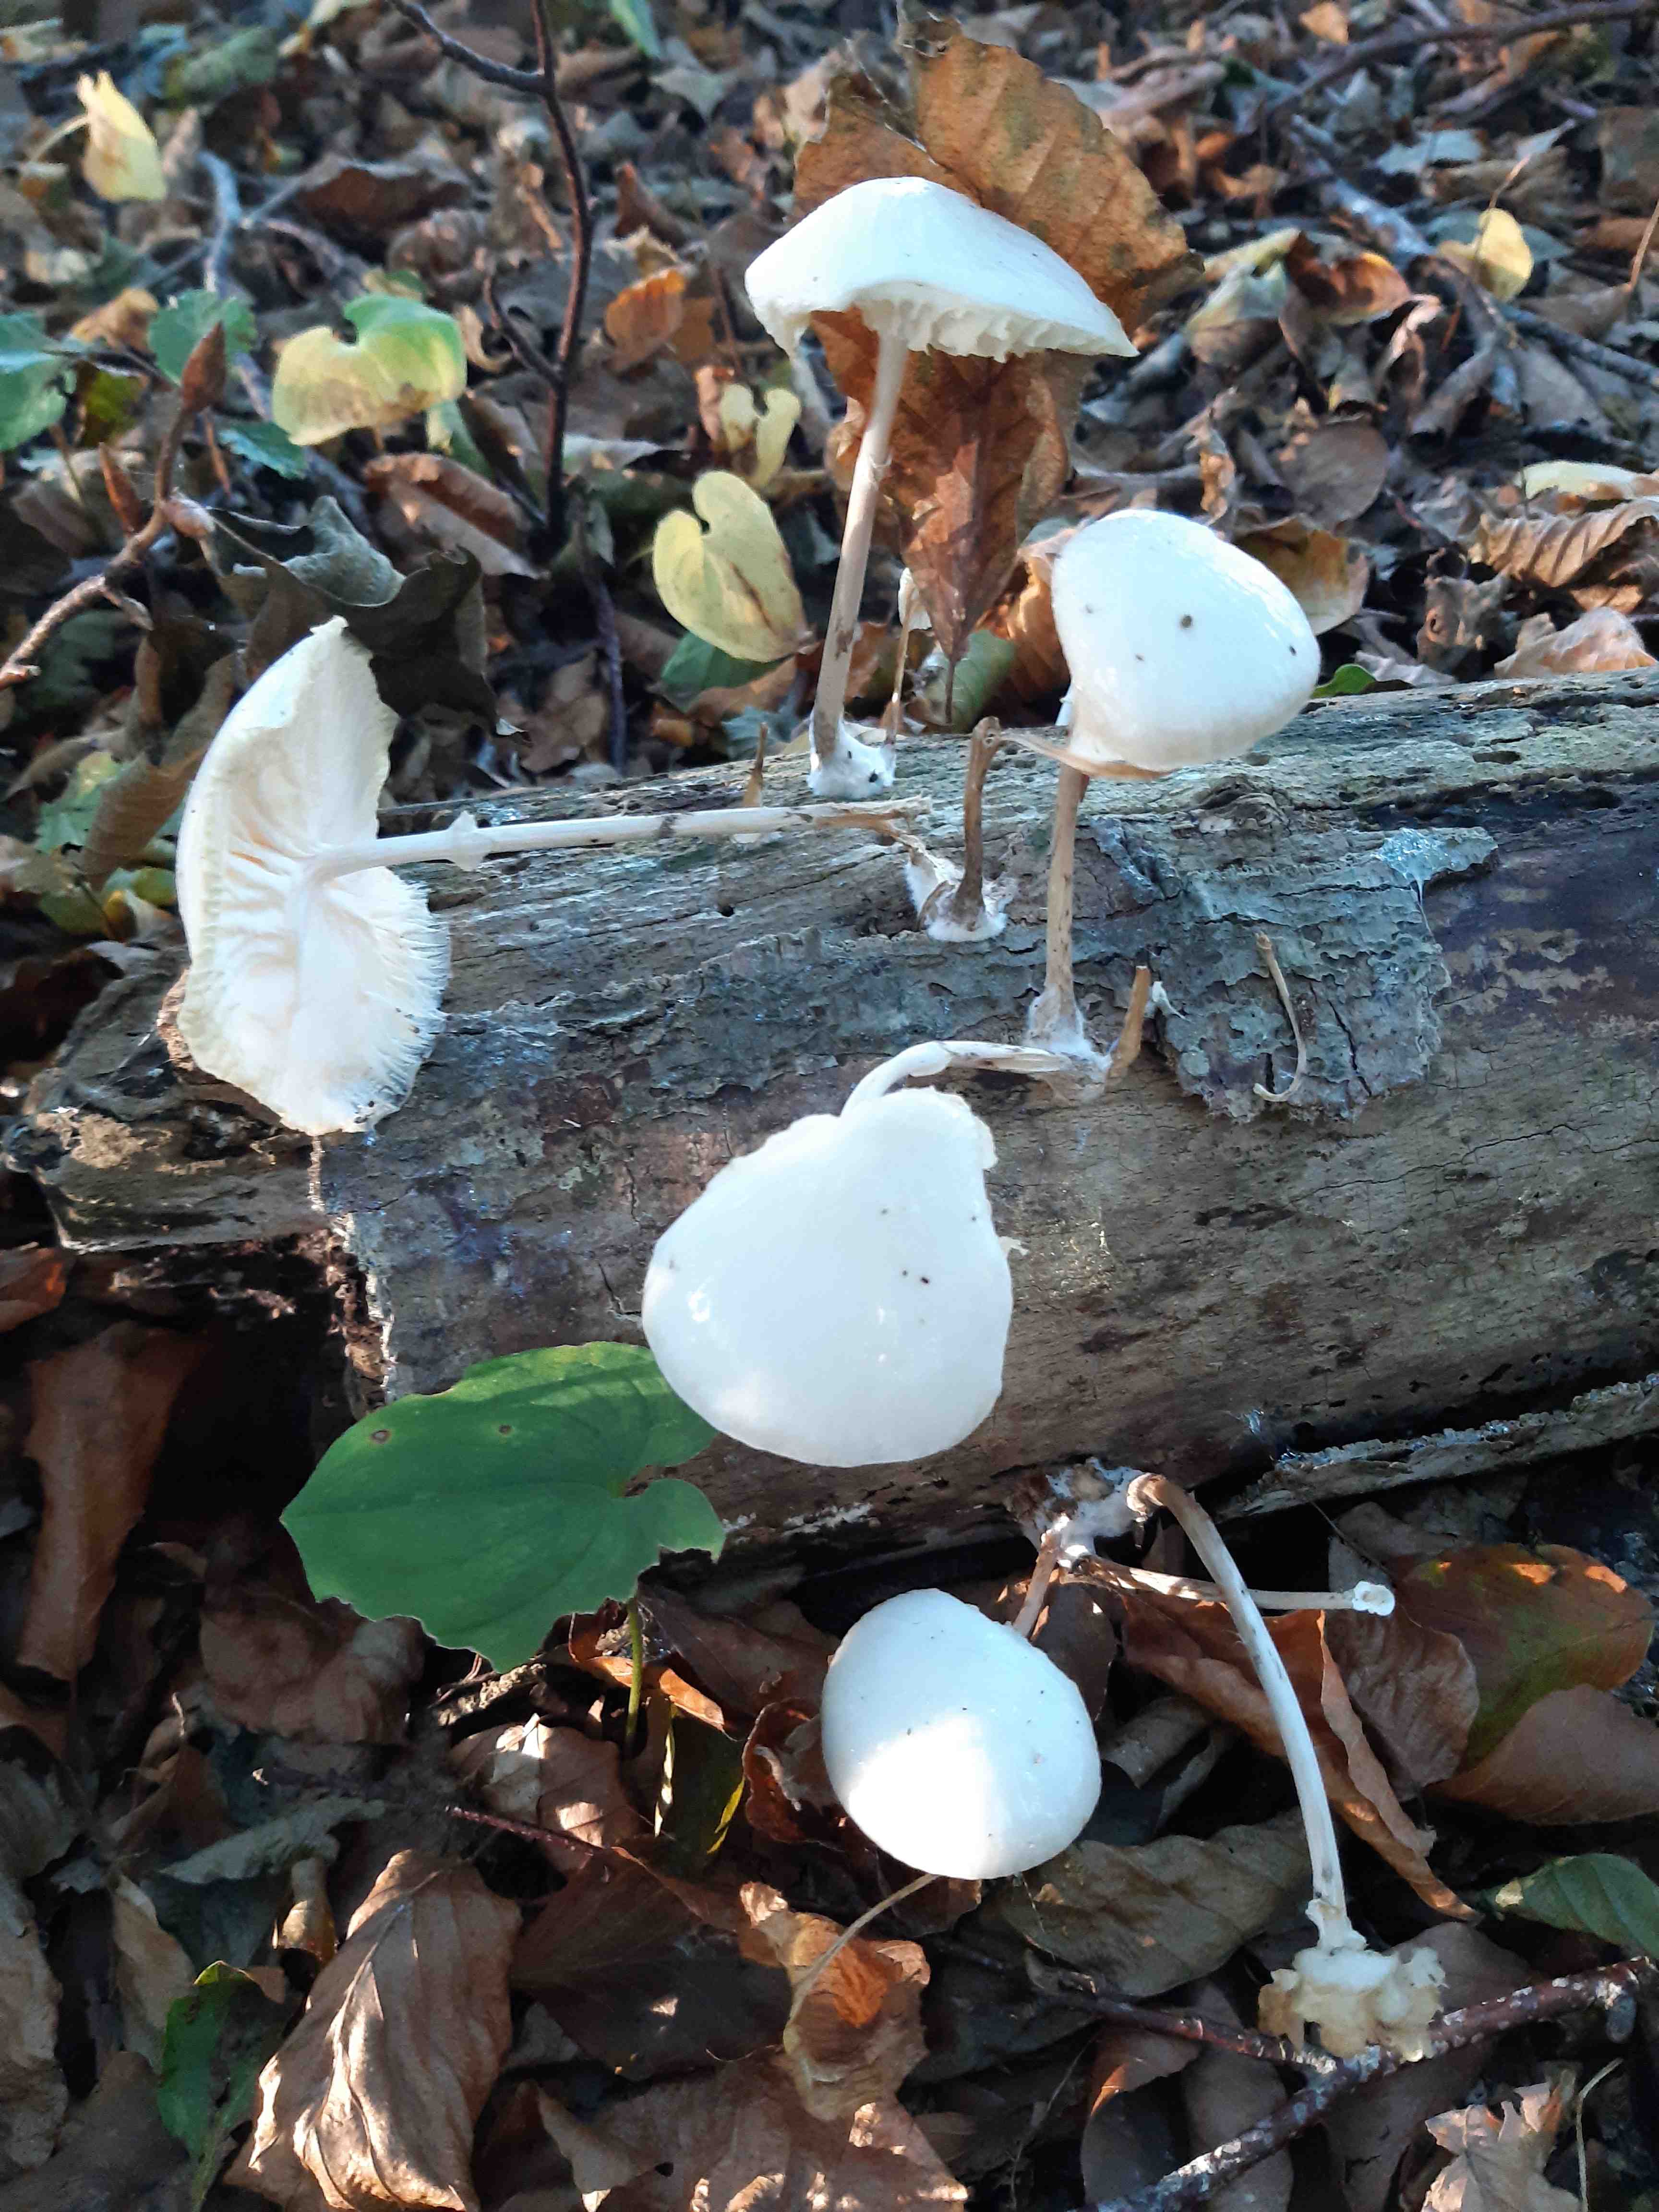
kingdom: Fungi
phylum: Basidiomycota
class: Agaricomycetes
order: Agaricales
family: Physalacriaceae
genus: Mucidula
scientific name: Mucidula mucida
